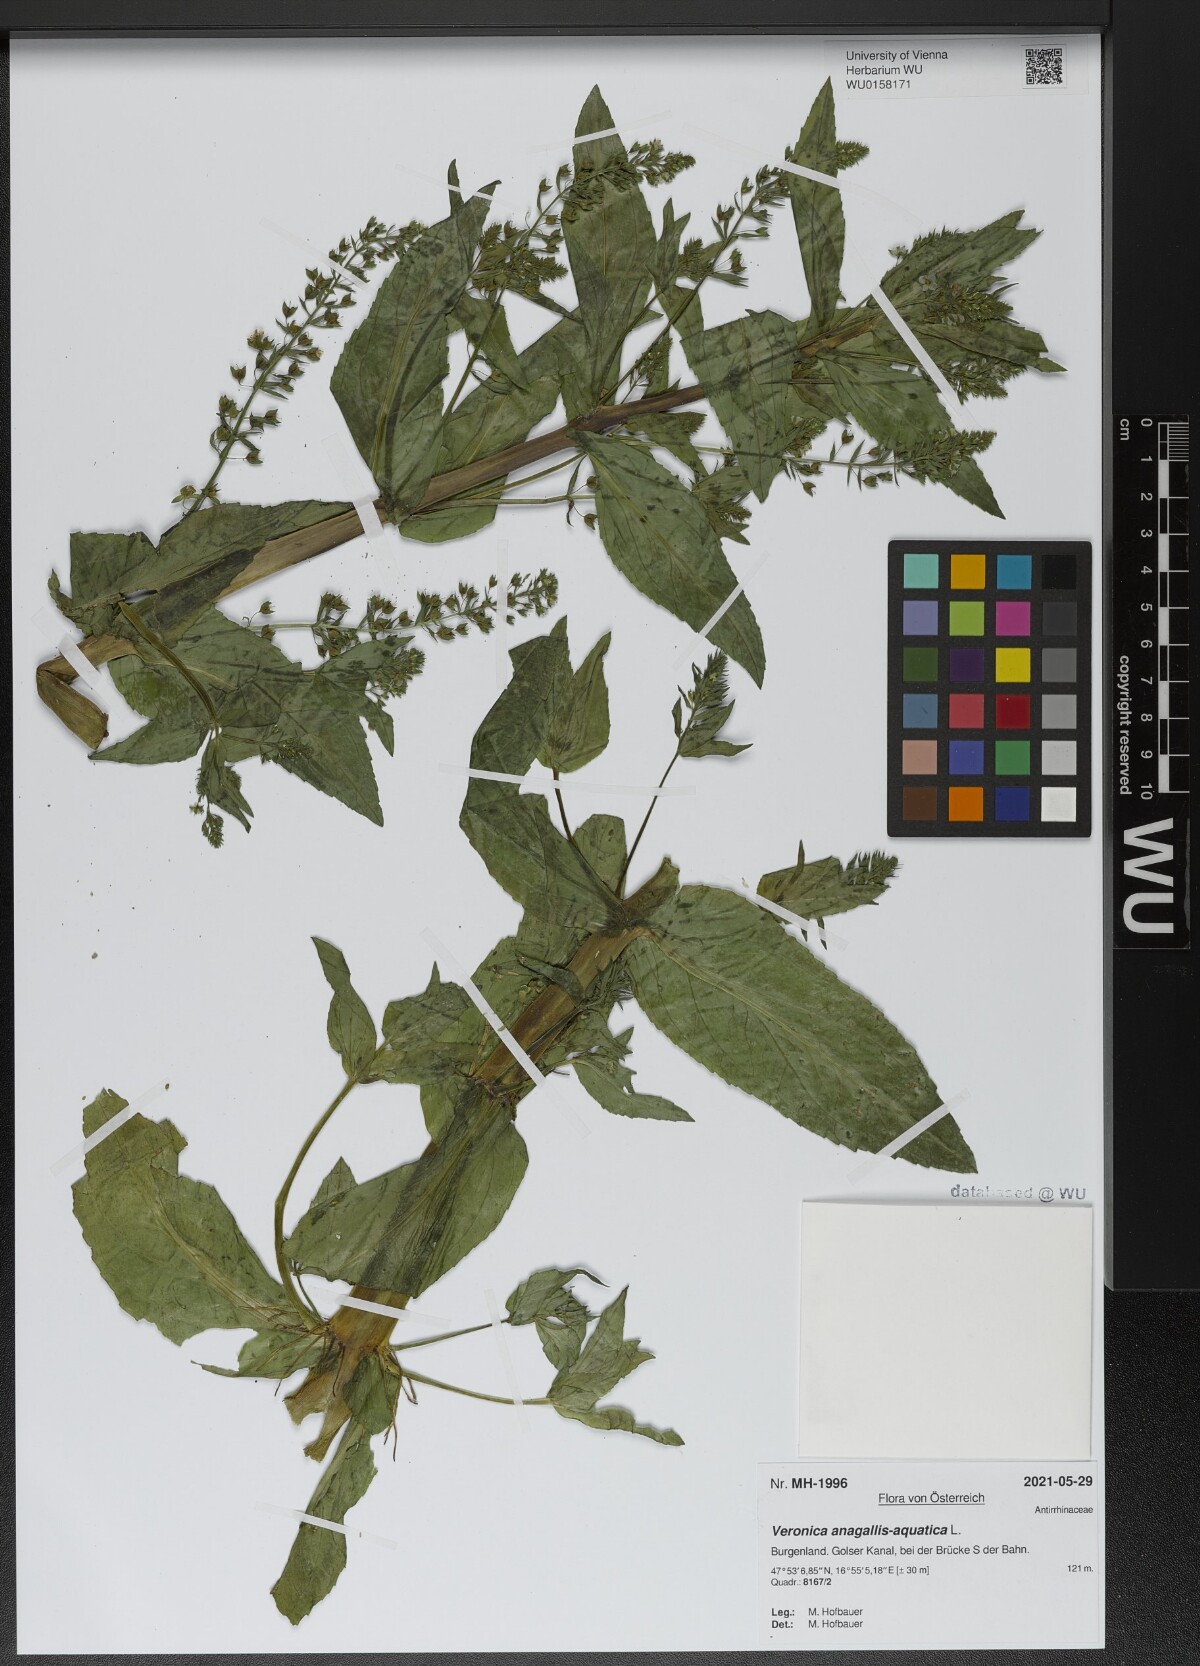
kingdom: Plantae
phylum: Tracheophyta
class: Magnoliopsida
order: Lamiales
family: Plantaginaceae
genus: Veronica
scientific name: Veronica anagallis-aquatica
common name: Water speedwell
